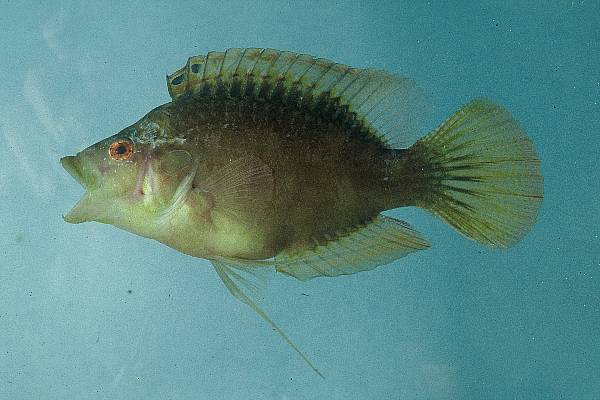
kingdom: Animalia
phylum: Chordata
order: Perciformes
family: Labridae
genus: Pteragogus
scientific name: Pteragogus pelycus
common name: Sideburn wrasse
